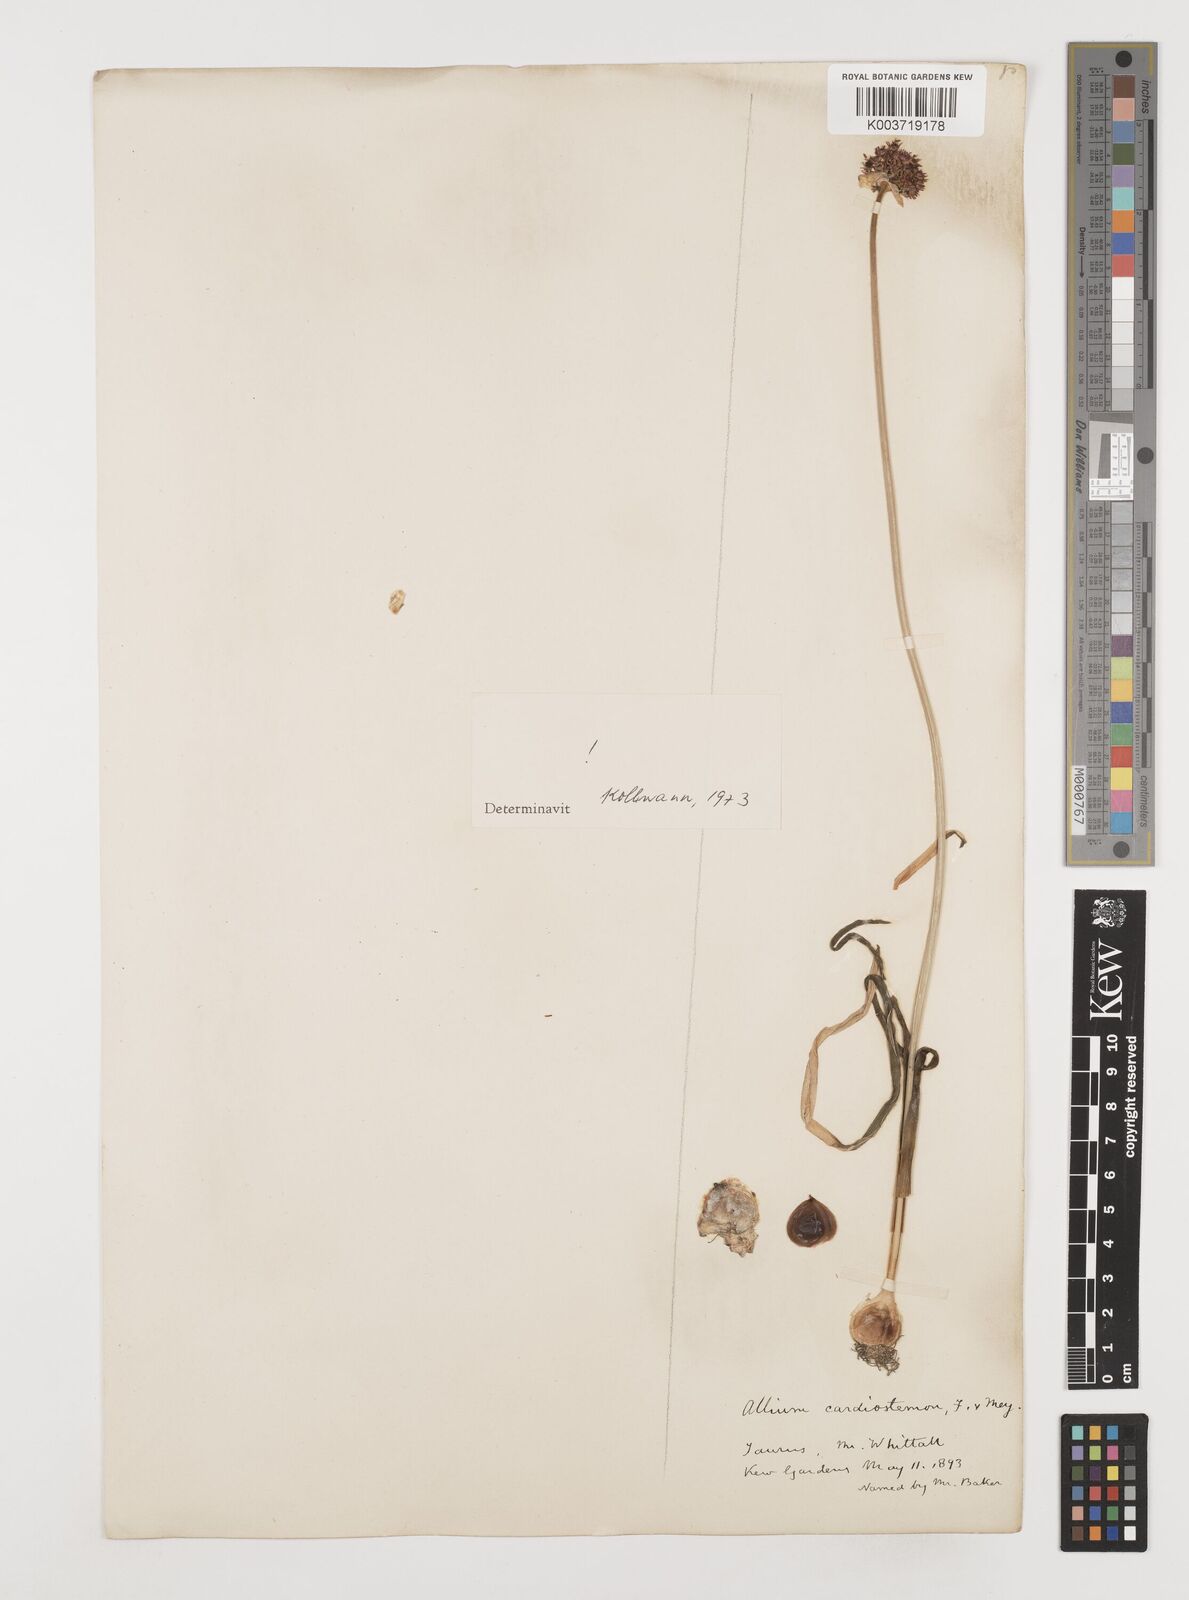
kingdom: Plantae
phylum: Tracheophyta
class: Liliopsida
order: Asparagales
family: Amaryllidaceae
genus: Allium
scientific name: Allium cardiostemon
